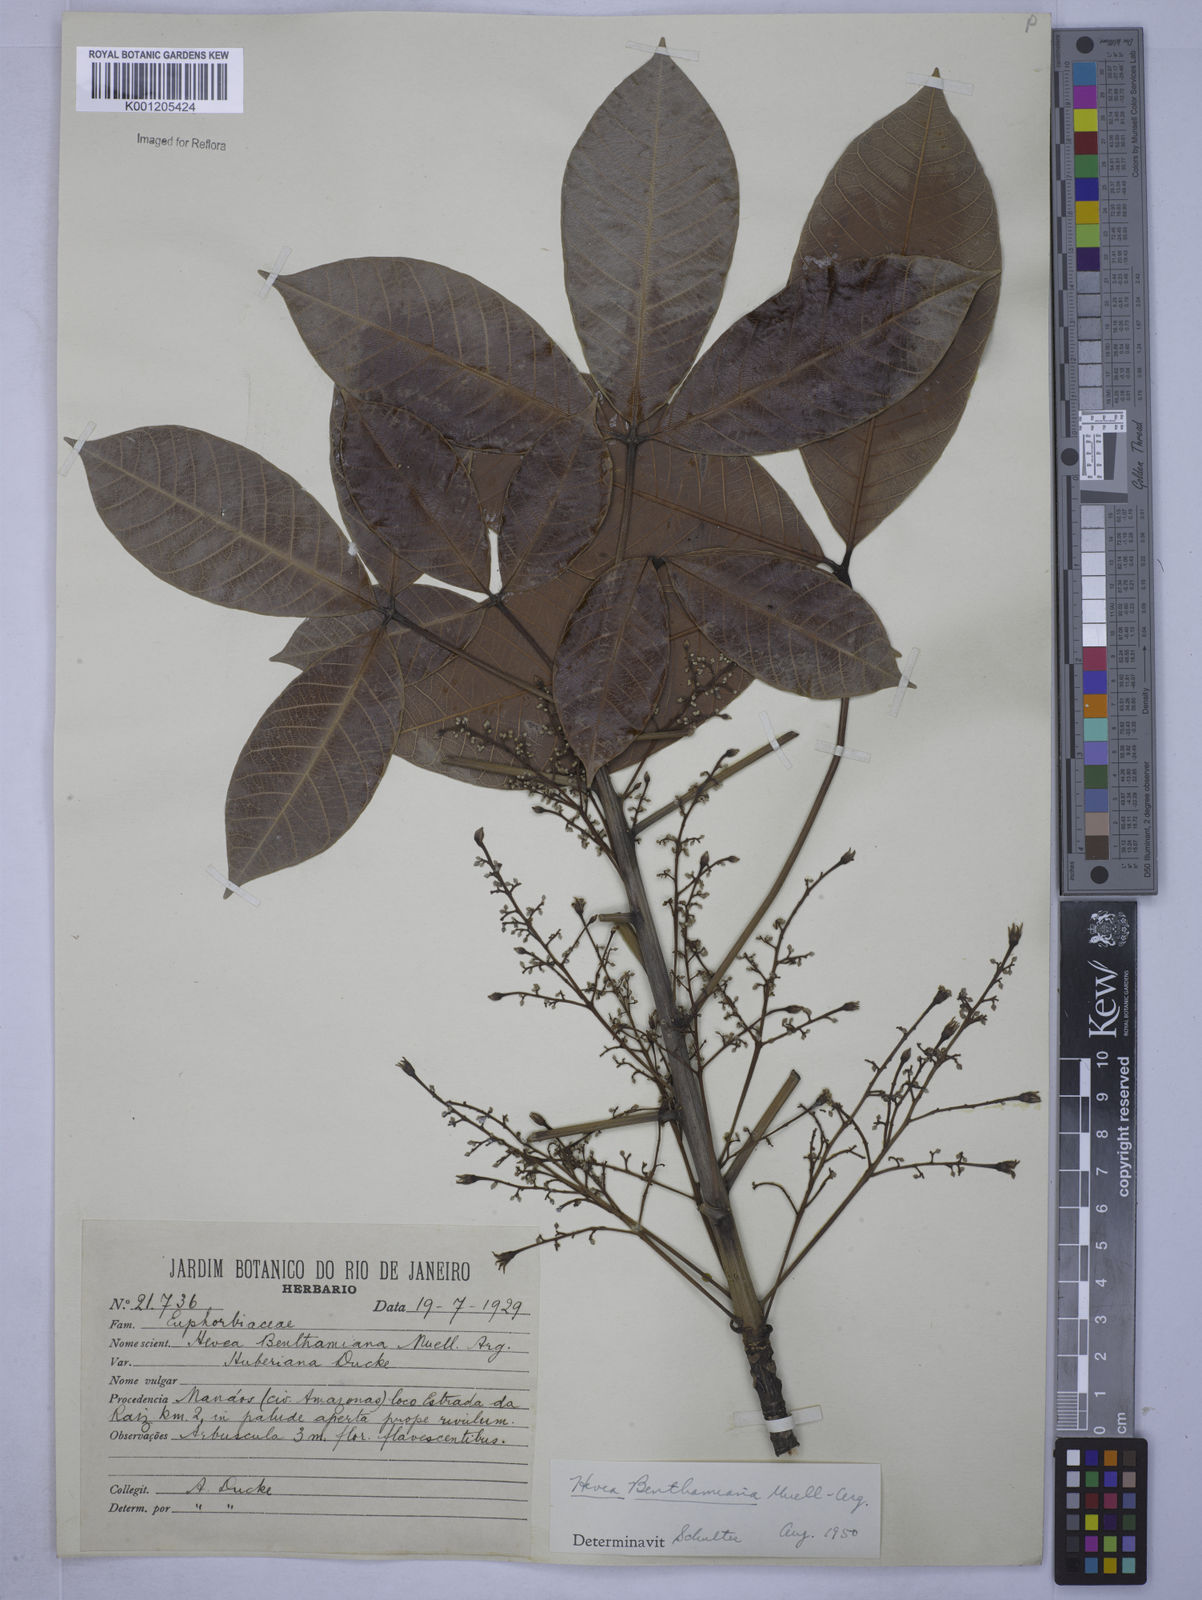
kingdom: Plantae
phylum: Tracheophyta
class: Magnoliopsida
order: Malpighiales
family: Euphorbiaceae
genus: Hevea
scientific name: Hevea
